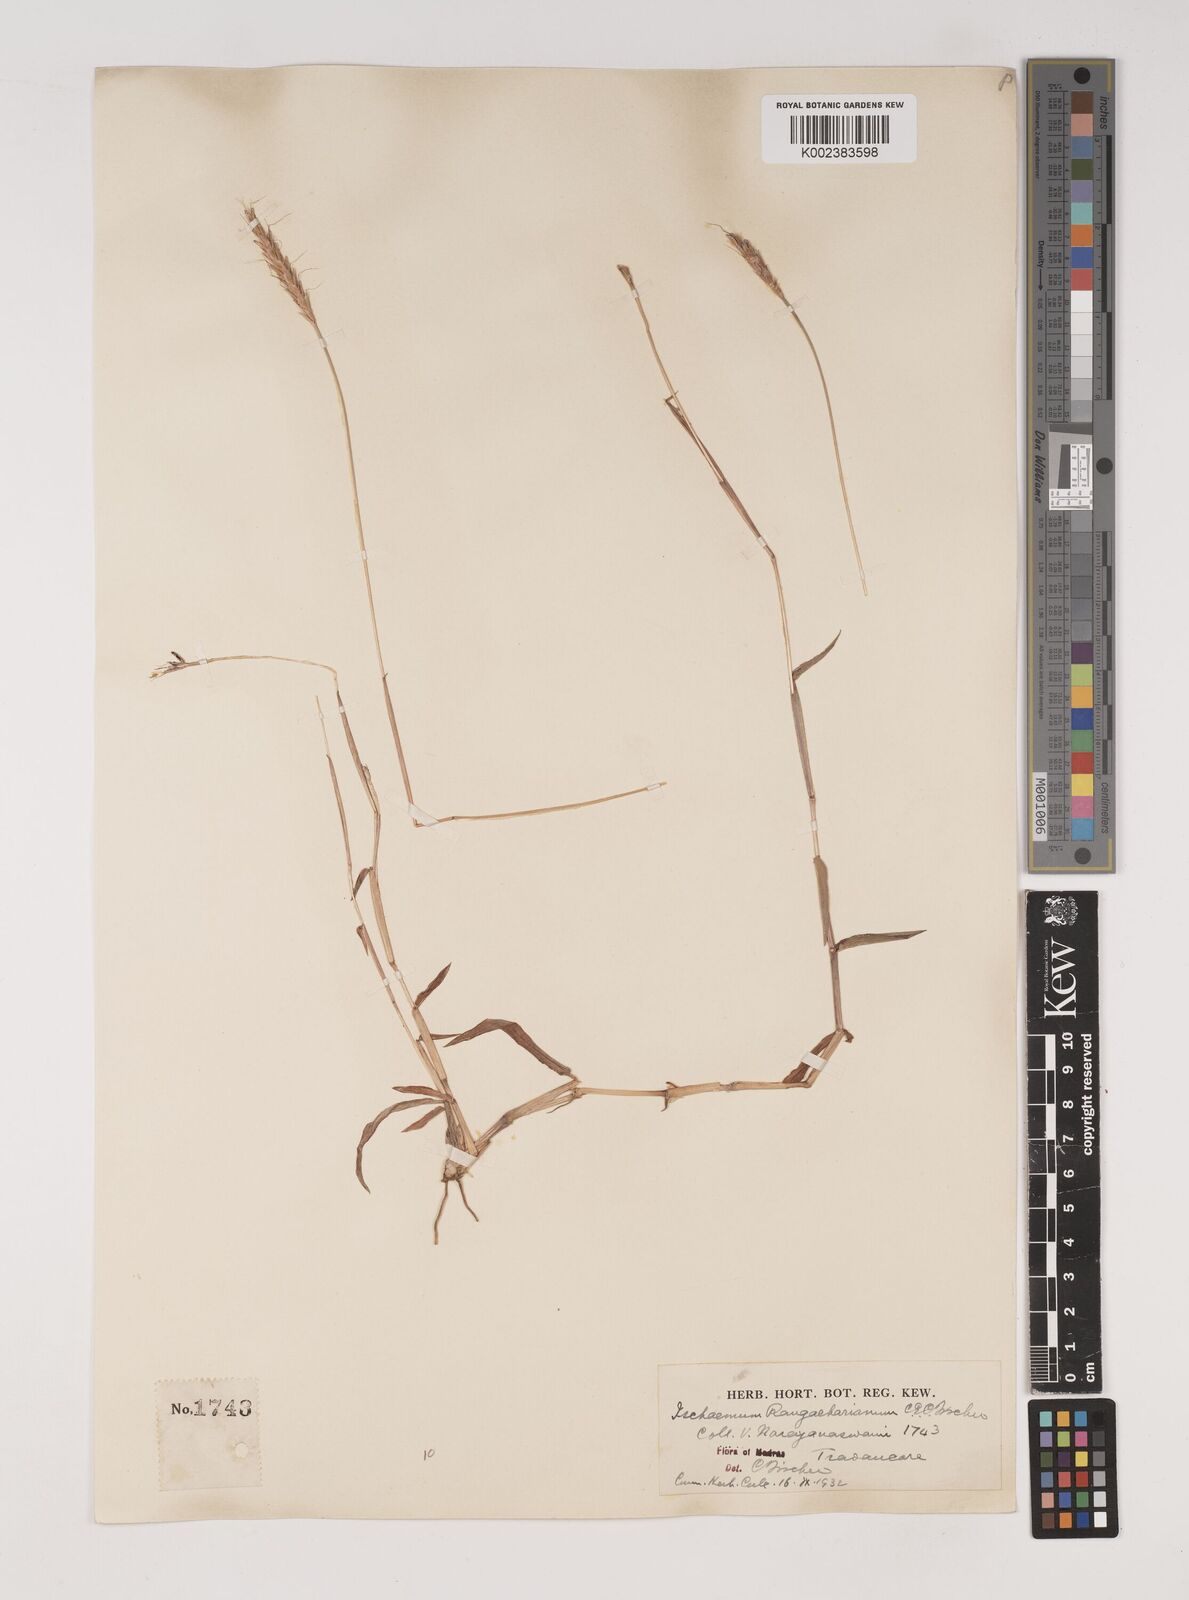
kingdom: Plantae
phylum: Tracheophyta
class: Liliopsida
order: Poales
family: Poaceae
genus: Ischaemum
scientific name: Ischaemum rangacharianum
